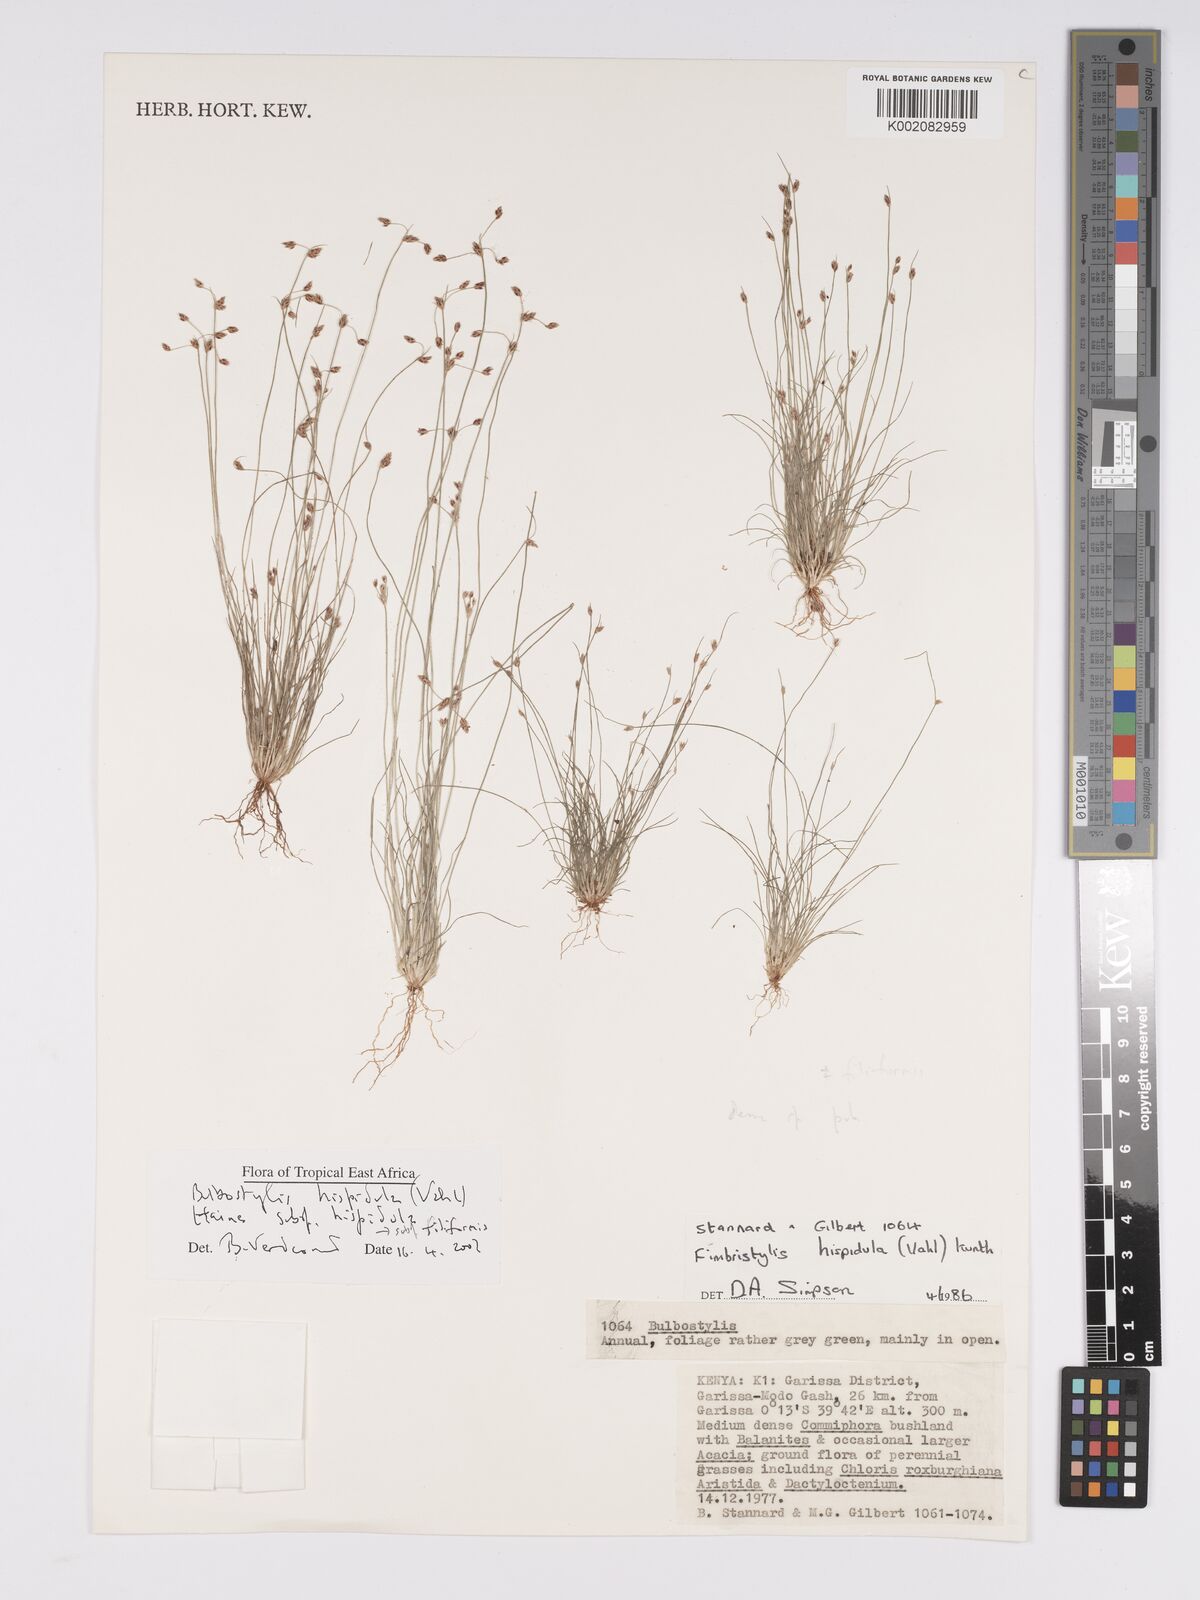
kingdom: Plantae
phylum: Tracheophyta
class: Liliopsida
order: Poales
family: Cyperaceae
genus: Bulbostylis
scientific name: Bulbostylis hispidula
